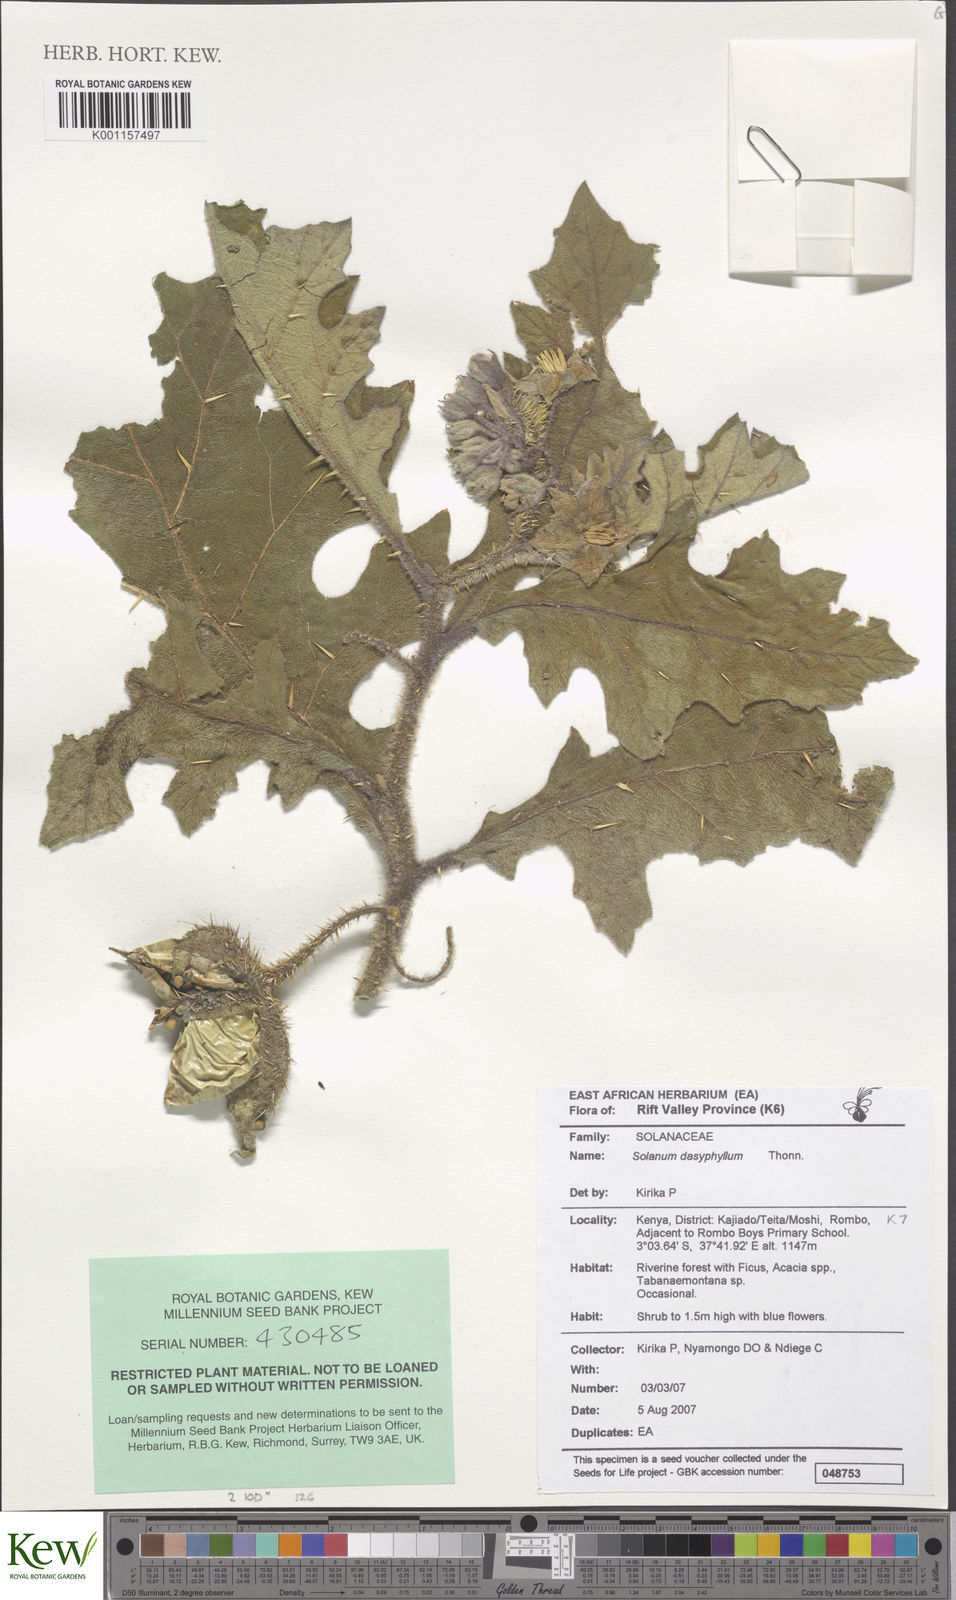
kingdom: Plantae
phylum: Tracheophyta
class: Magnoliopsida
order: Solanales
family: Solanaceae
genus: Solanum
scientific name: Solanum dasyphyllum
